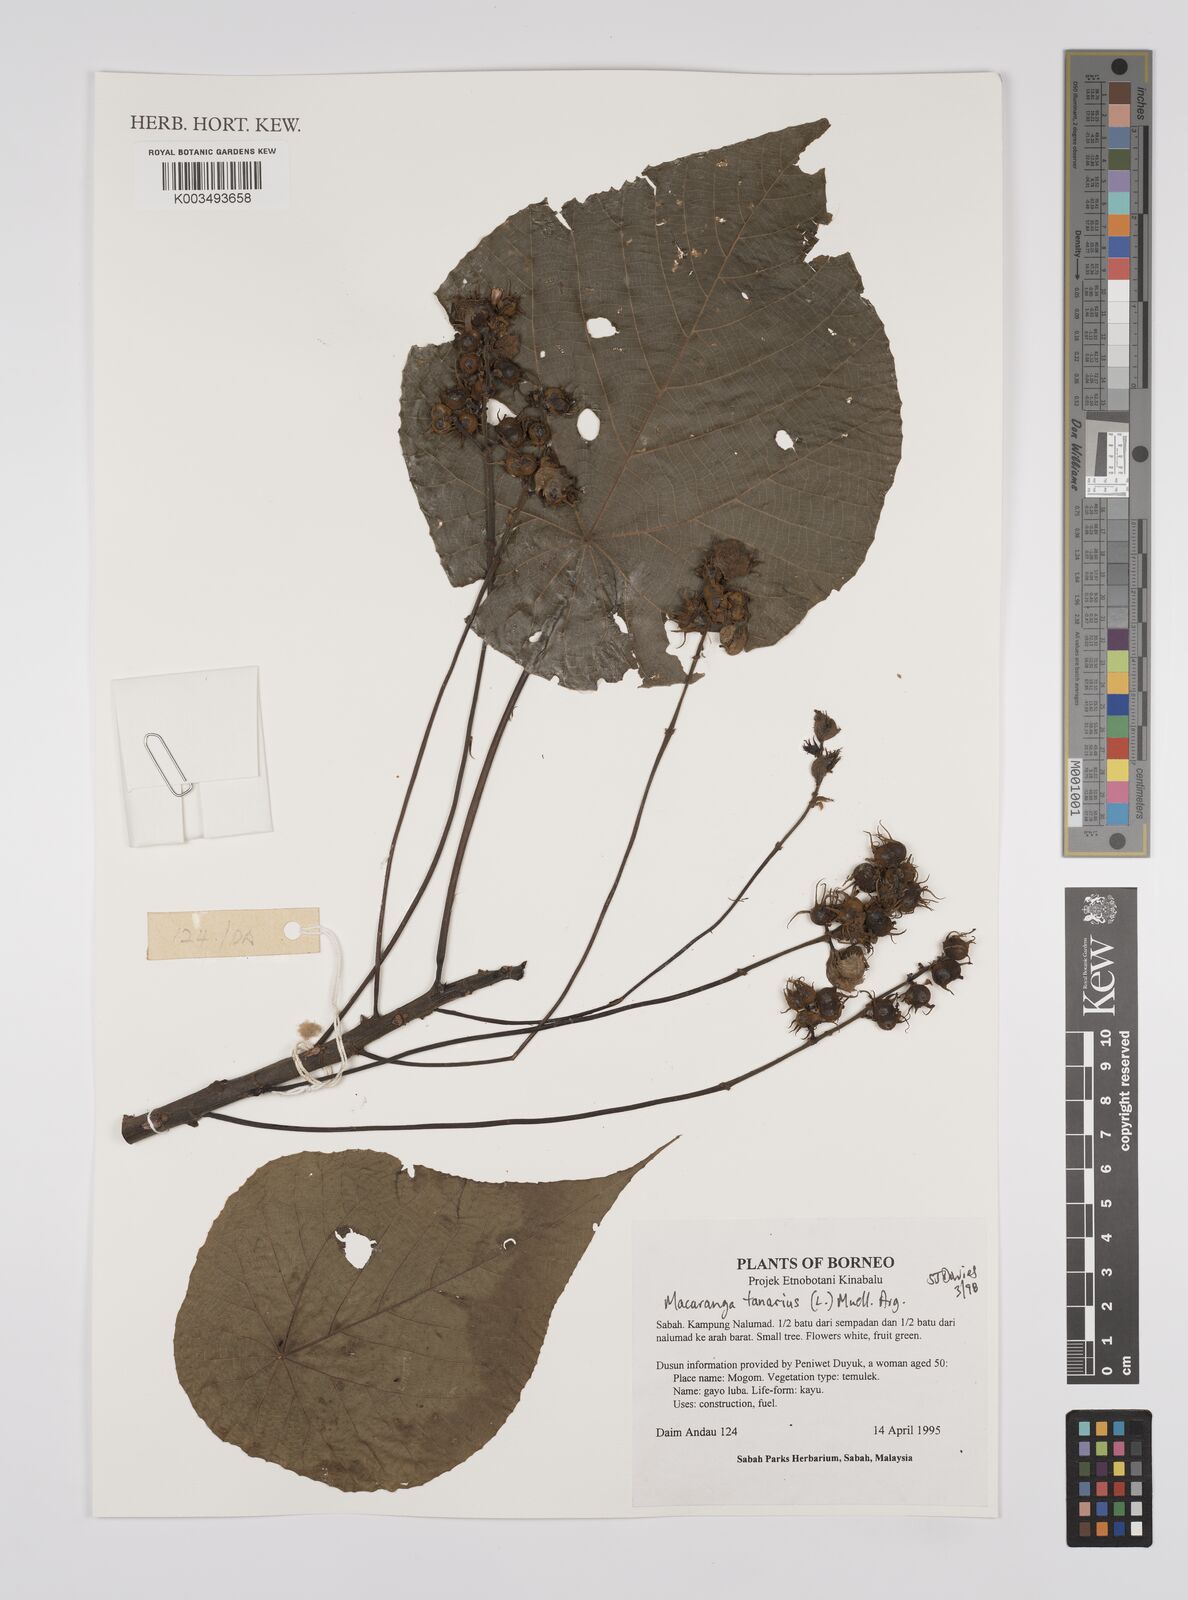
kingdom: Plantae
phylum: Tracheophyta
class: Magnoliopsida
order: Malpighiales
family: Euphorbiaceae
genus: Macaranga
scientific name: Macaranga tanarius
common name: Parasol leaf tree
